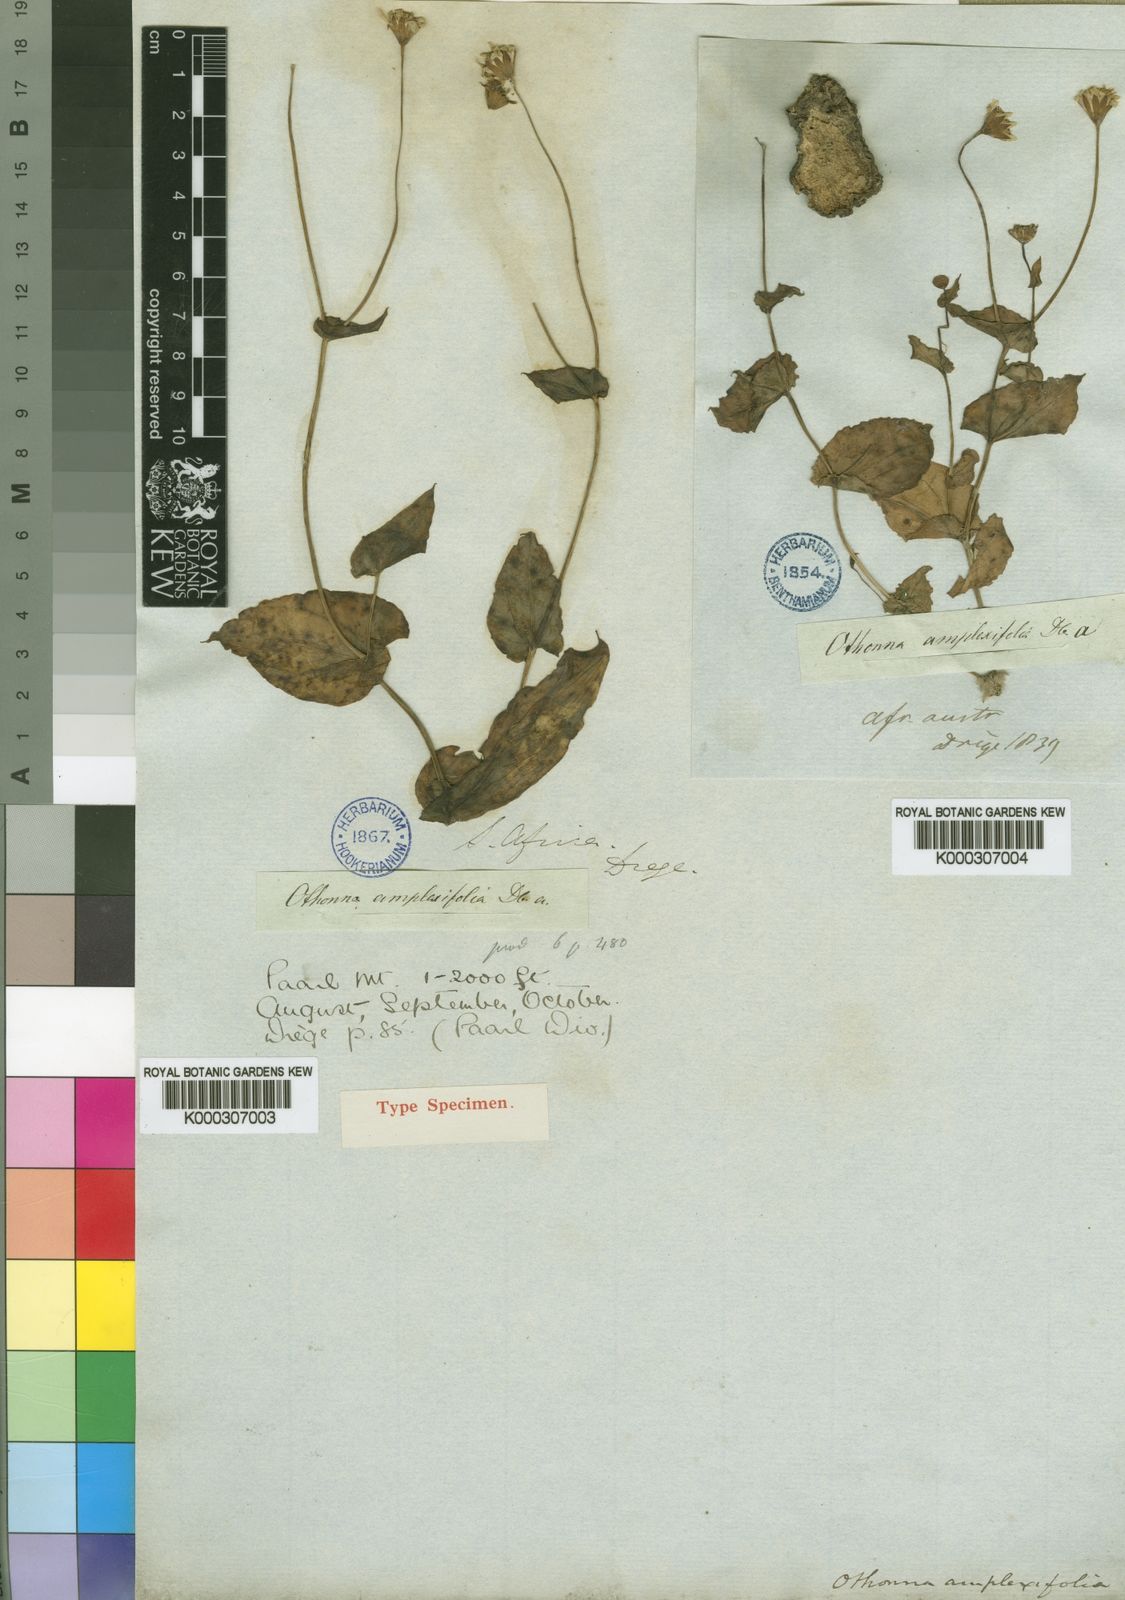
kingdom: Plantae
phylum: Tracheophyta
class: Magnoliopsida
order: Asterales
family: Asteraceae
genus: Othonna
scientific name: Othonna amplexifolia
